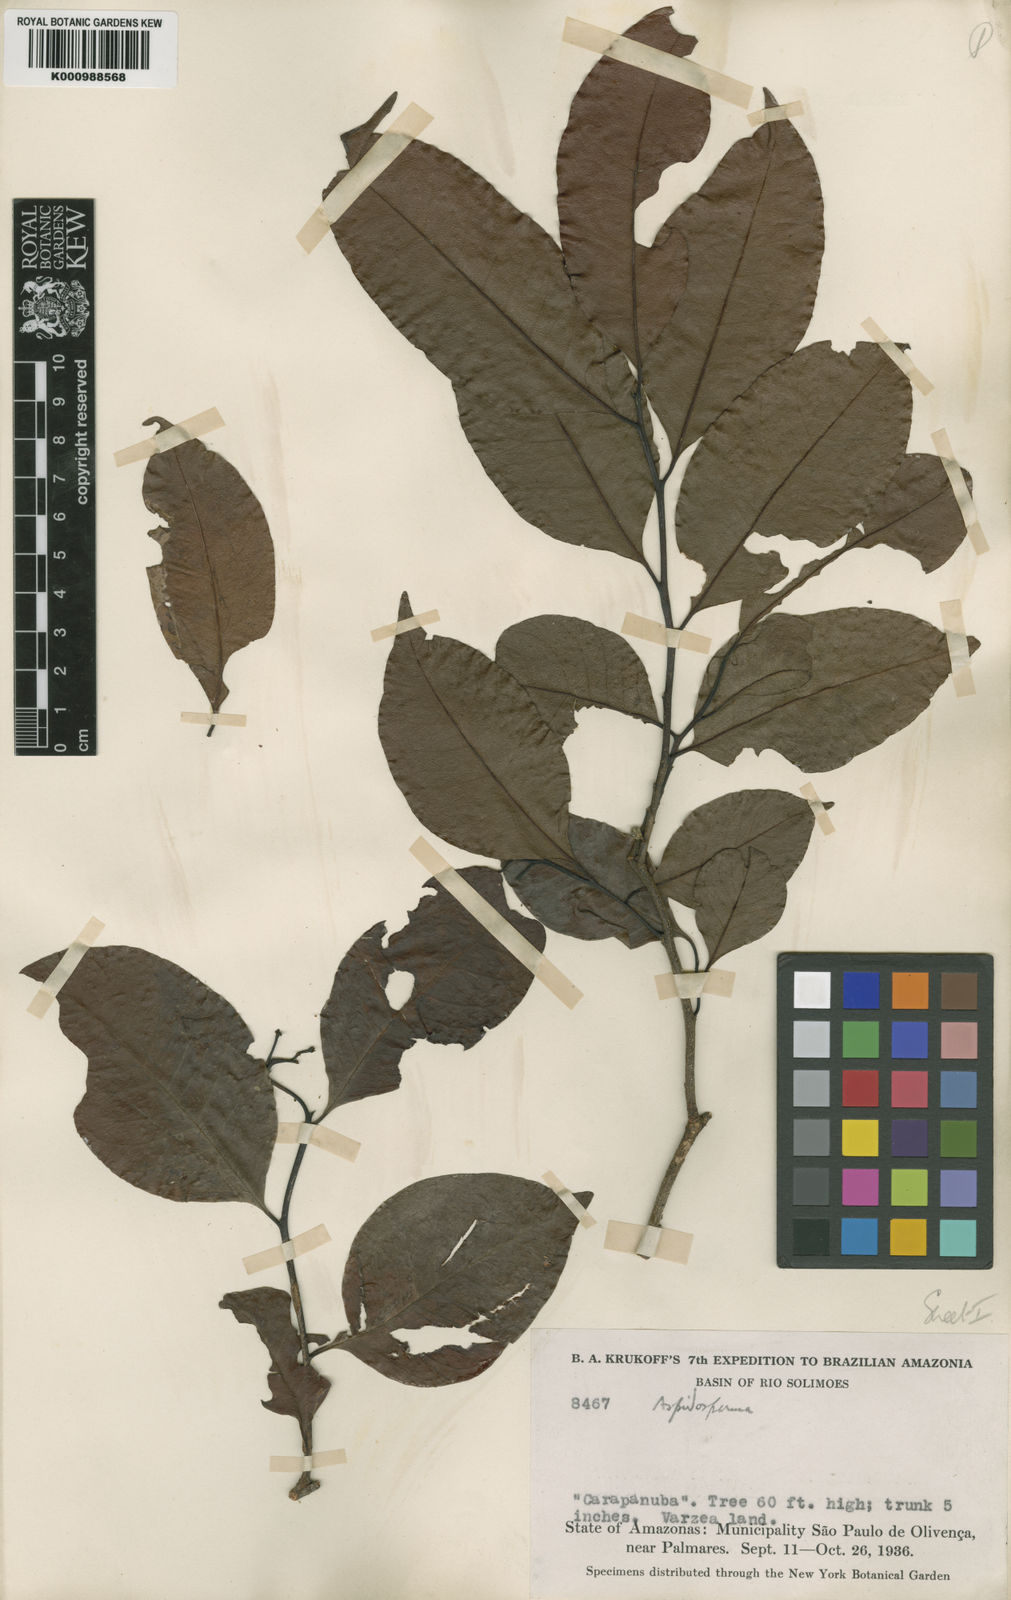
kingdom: Plantae
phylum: Tracheophyta
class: Magnoliopsida
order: Gentianales
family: Apocynaceae
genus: Aspidosperma
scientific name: Aspidosperma
